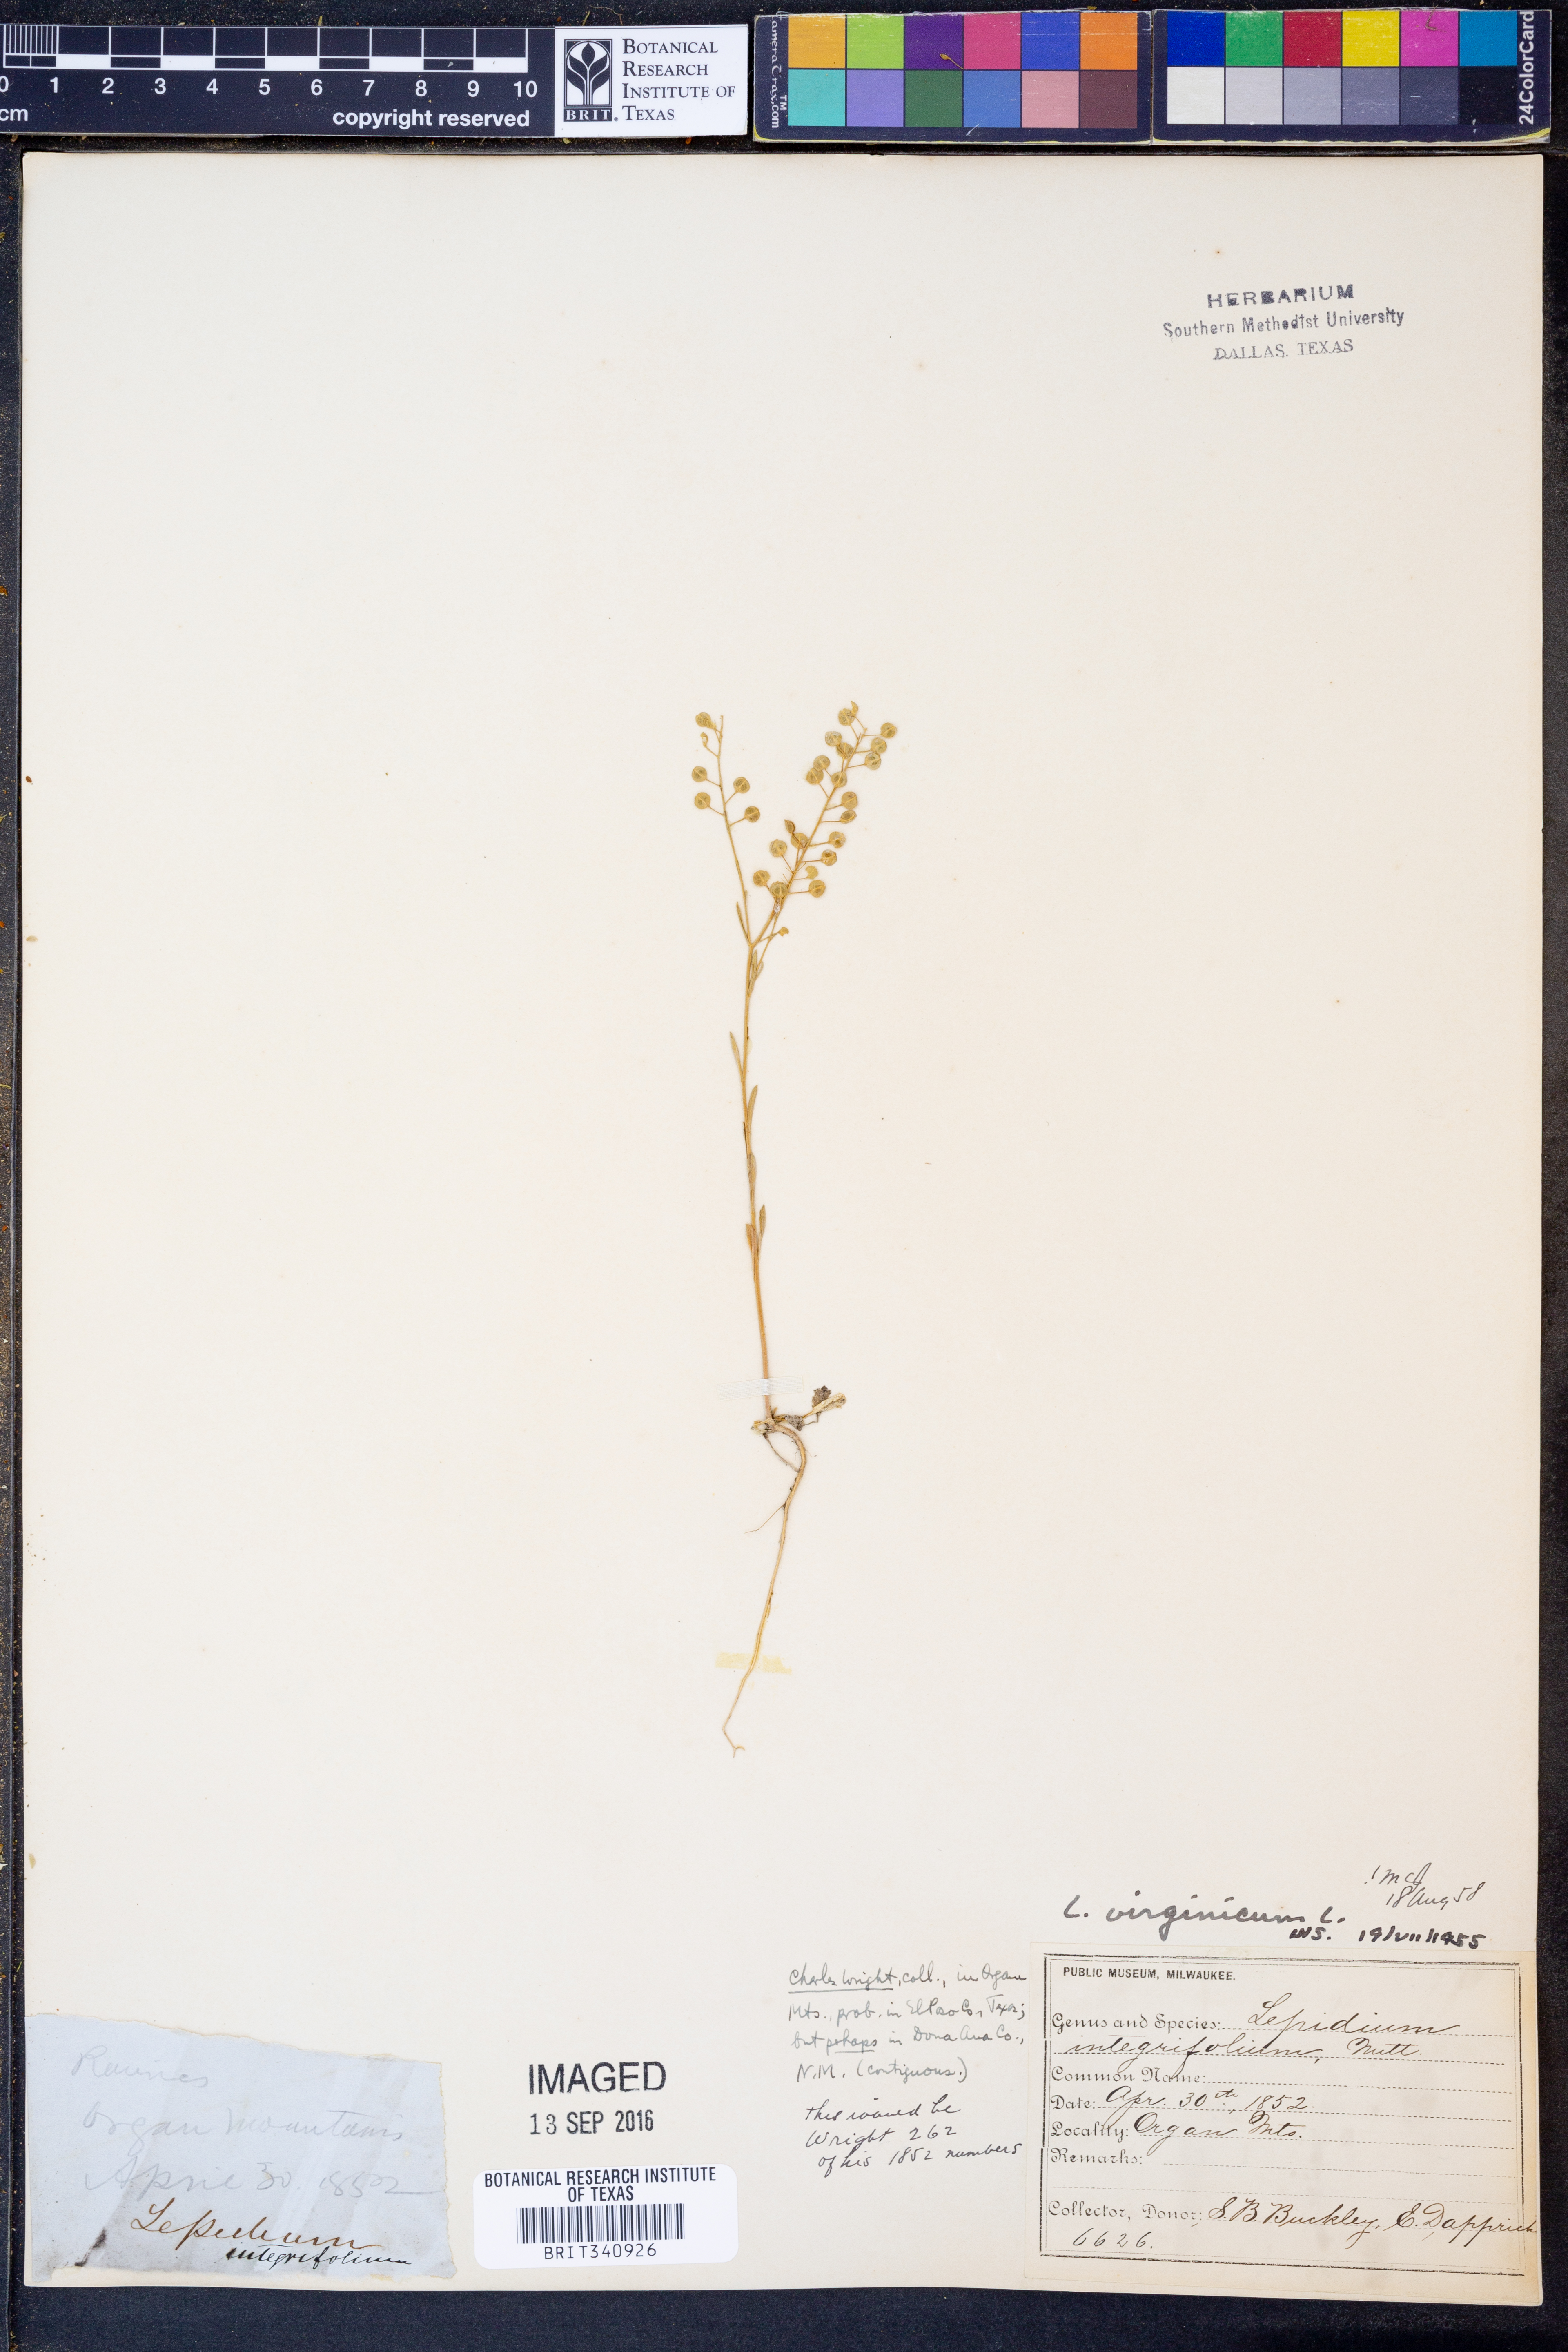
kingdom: Plantae
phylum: Tracheophyta
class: Magnoliopsida
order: Brassicales
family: Brassicaceae
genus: Lepidium
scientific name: Lepidium virginicum
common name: Least pepperwort
